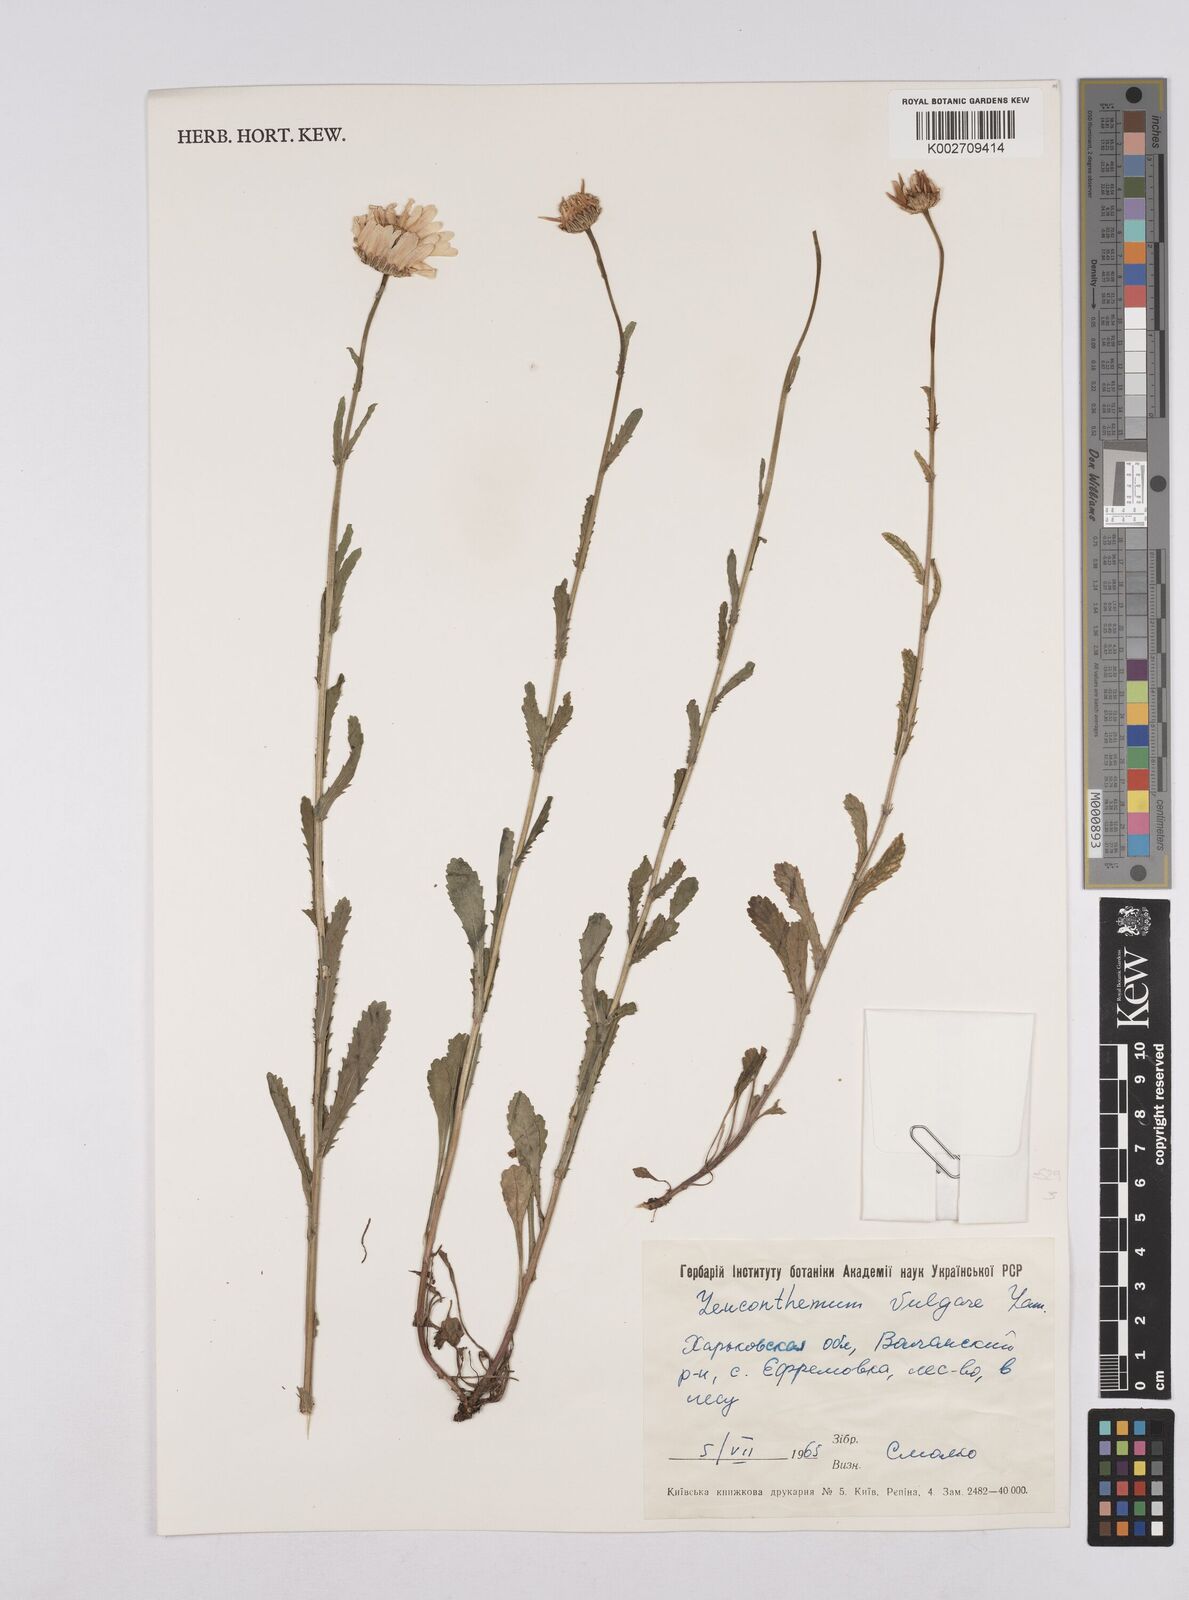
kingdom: Plantae
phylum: Tracheophyta
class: Magnoliopsida
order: Asterales
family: Asteraceae
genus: Leucanthemum
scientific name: Leucanthemum vulgare
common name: Oxeye daisy
